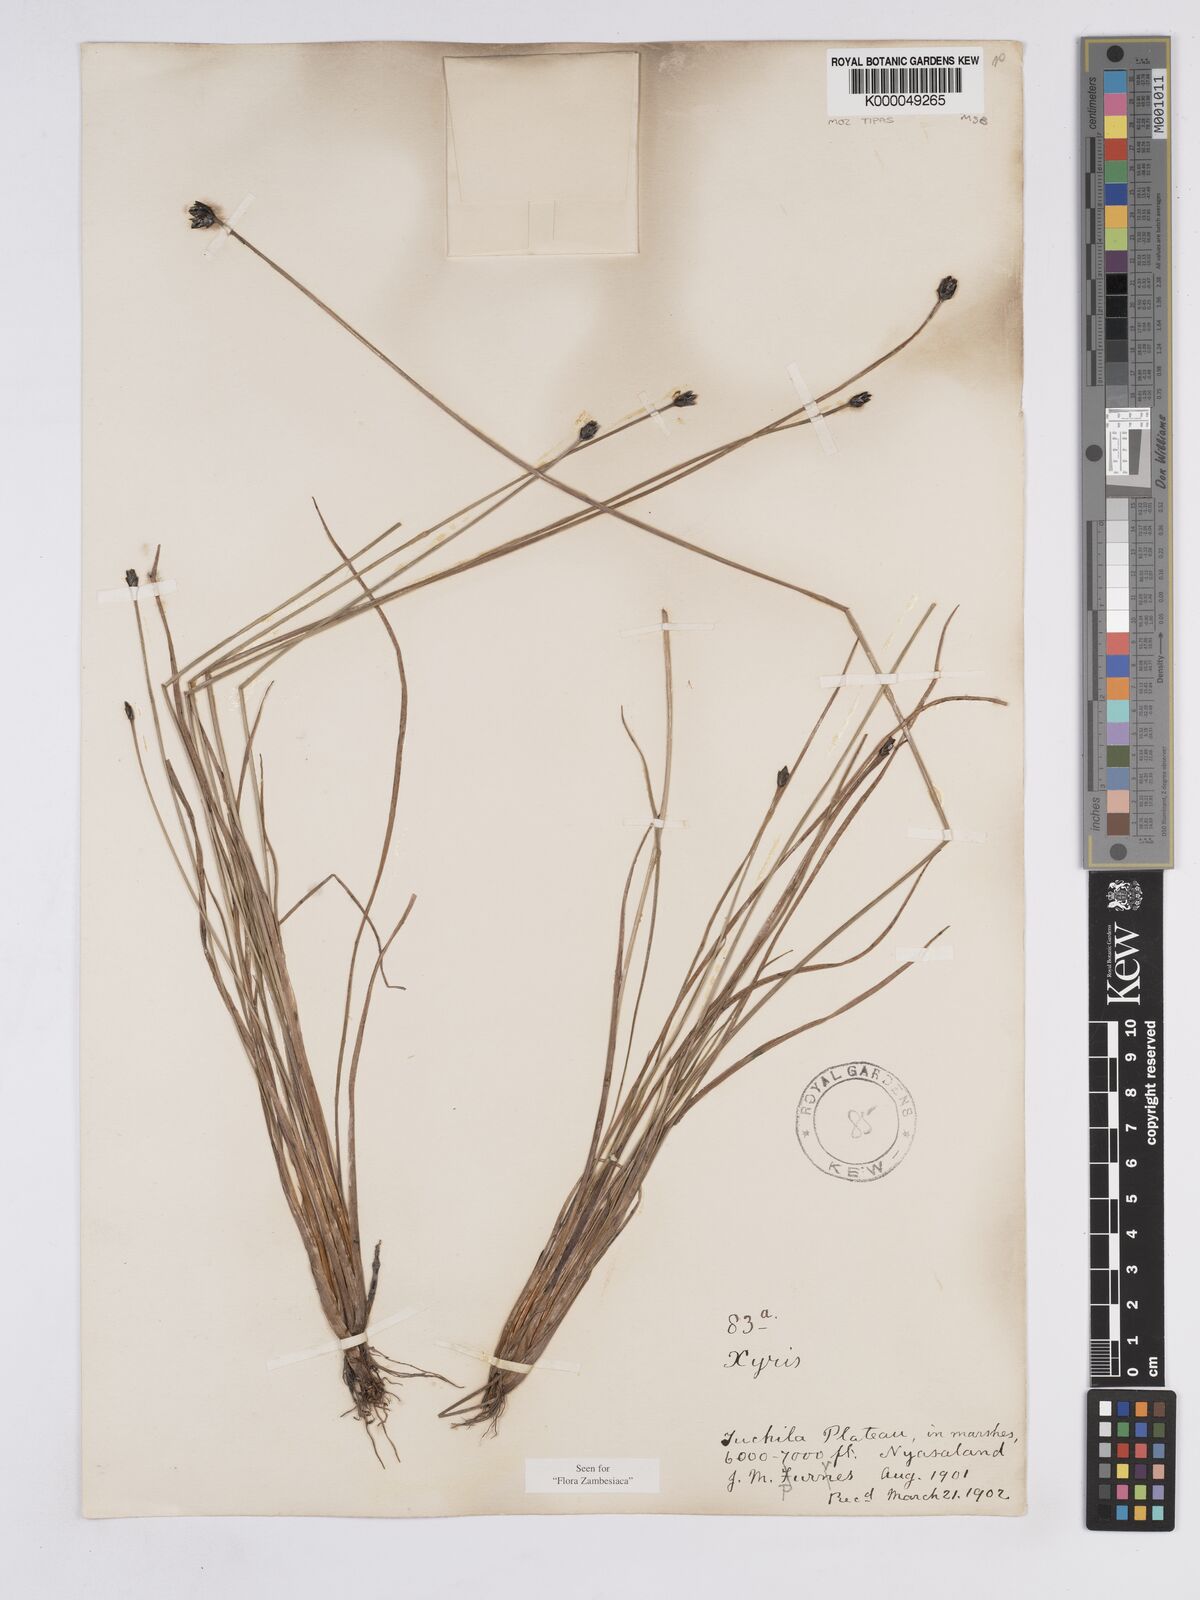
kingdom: Plantae
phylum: Tracheophyta
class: Liliopsida
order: Poales
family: Xyridaceae
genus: Xyris
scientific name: Xyris makuensis
